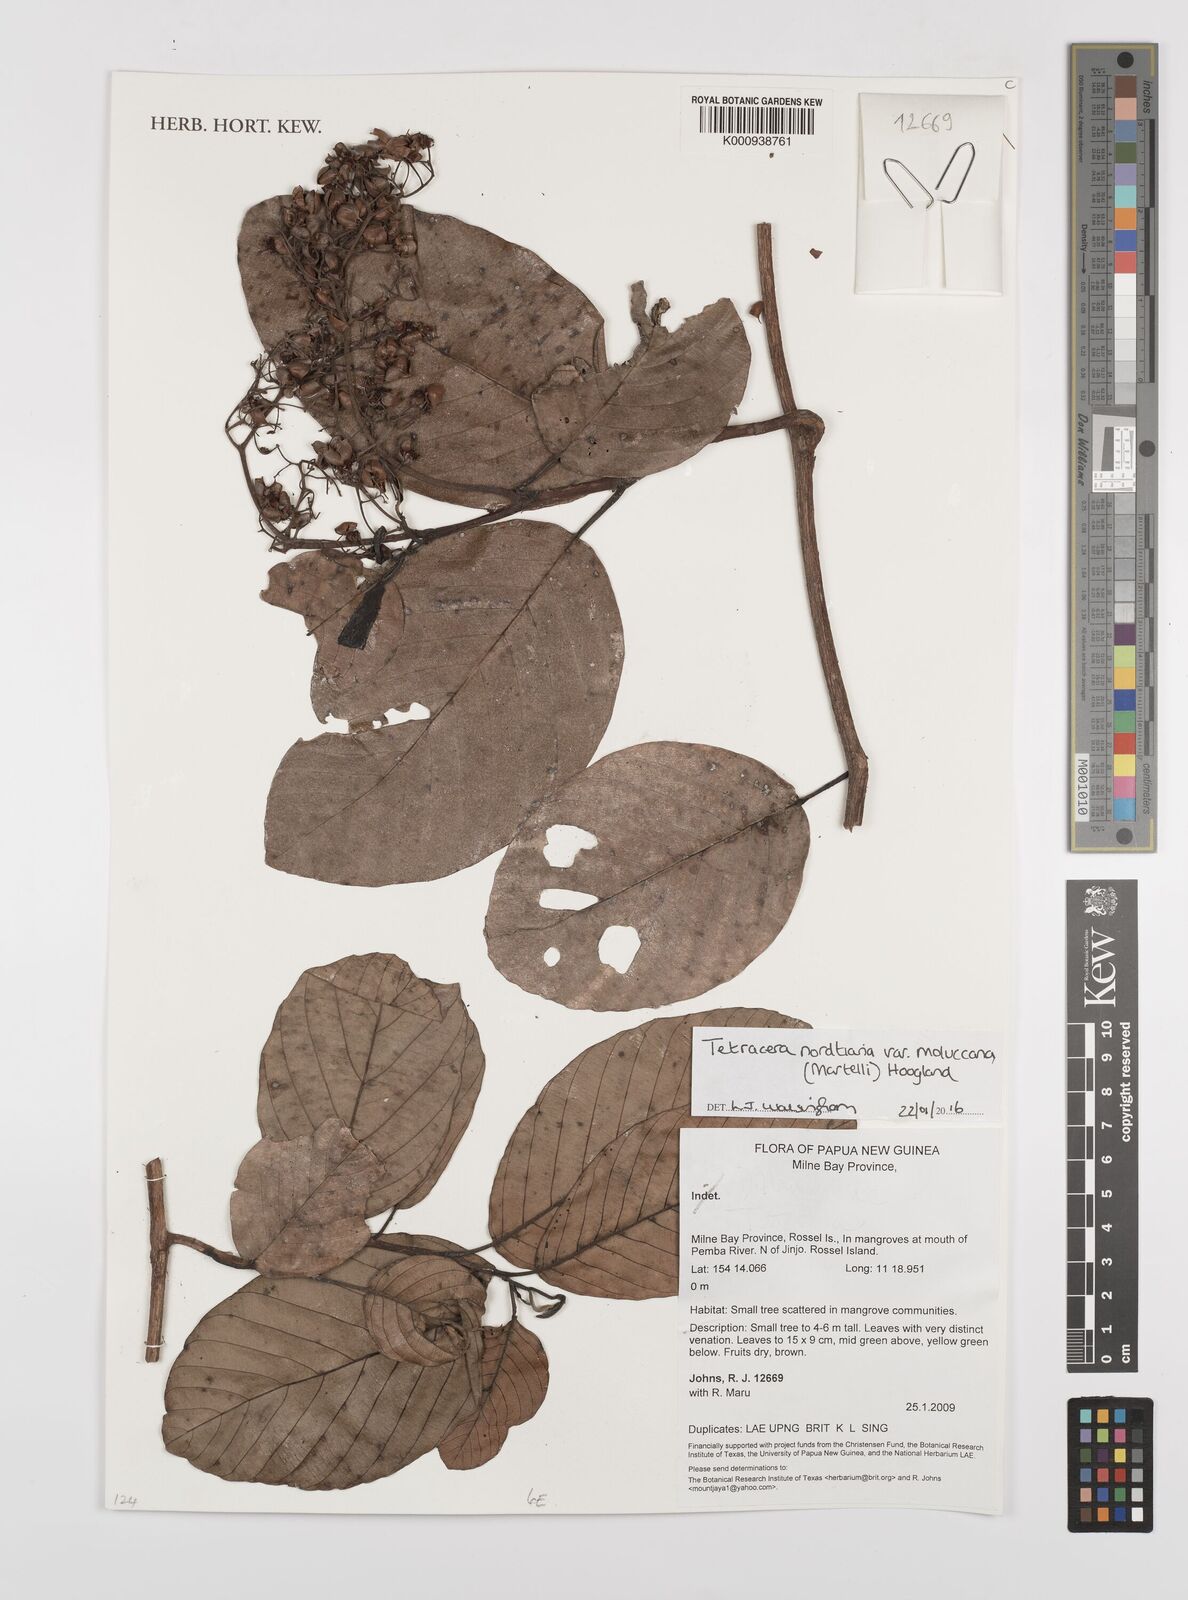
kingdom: Plantae
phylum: Tracheophyta
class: Magnoliopsida
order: Dilleniales
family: Dilleniaceae
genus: Tetracera
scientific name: Tetracera nordtiana
